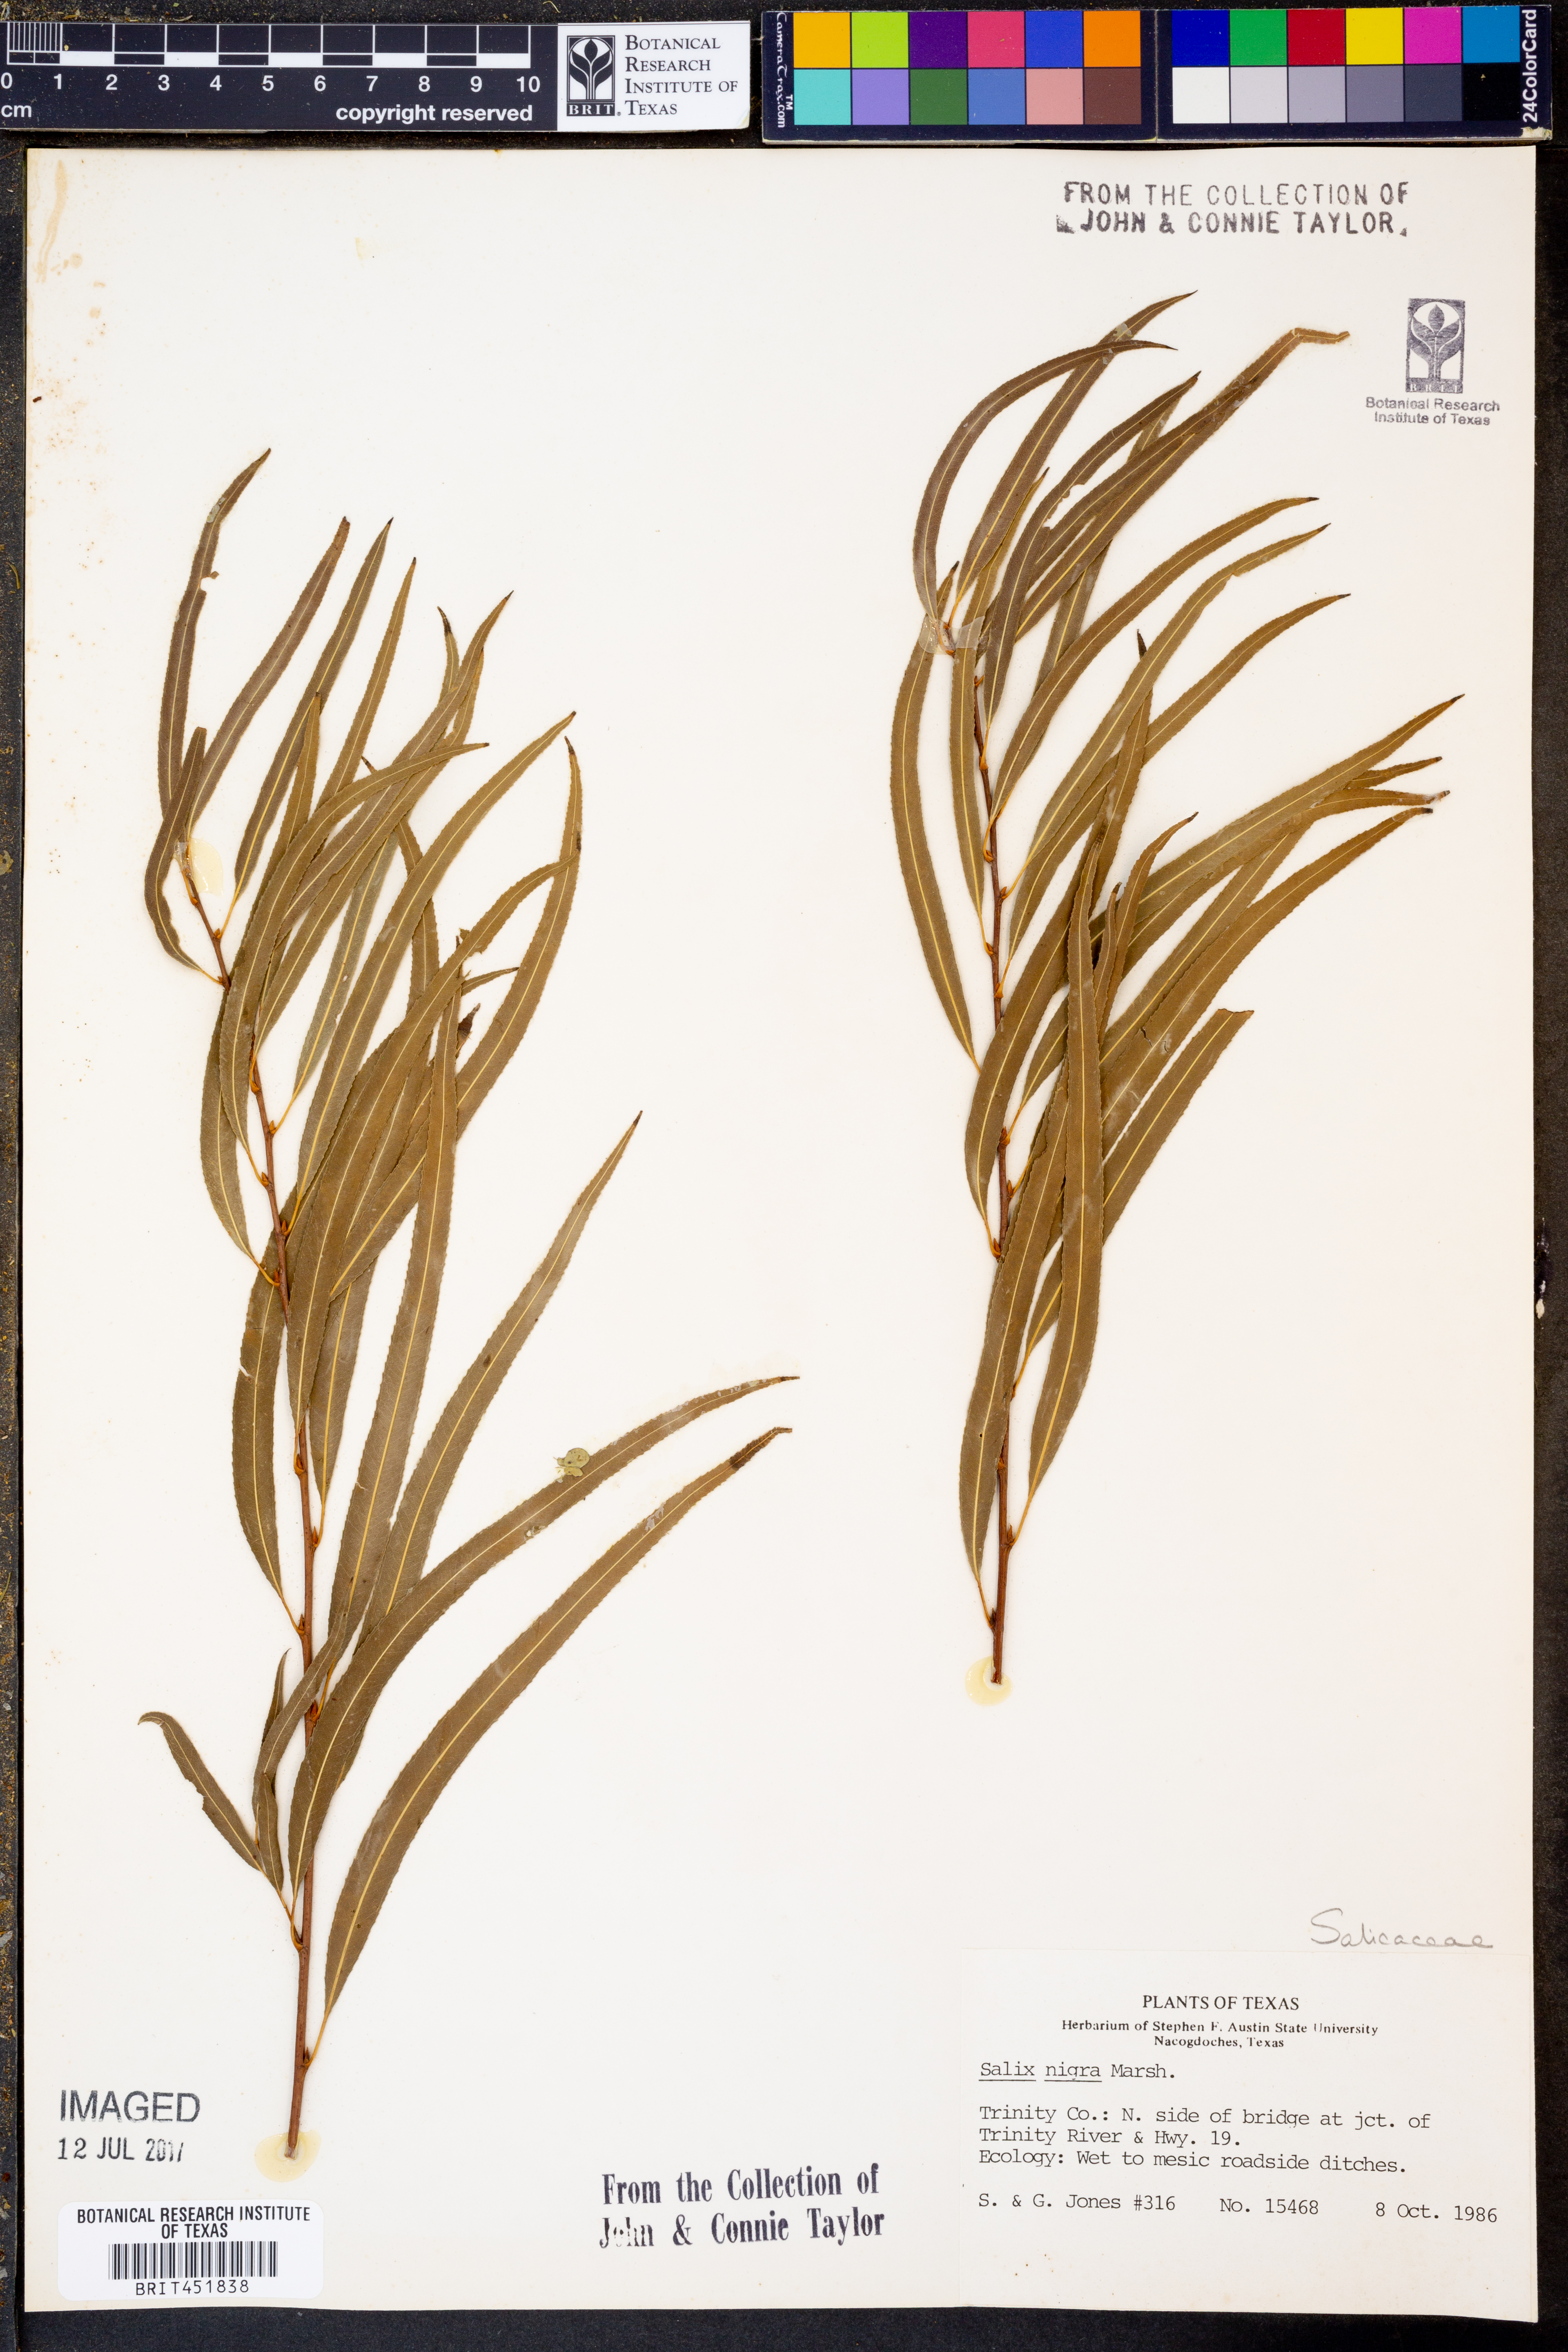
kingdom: Plantae
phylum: Tracheophyta
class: Magnoliopsida
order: Malpighiales
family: Salicaceae
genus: Salix
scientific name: Salix nigra
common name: Black willow
